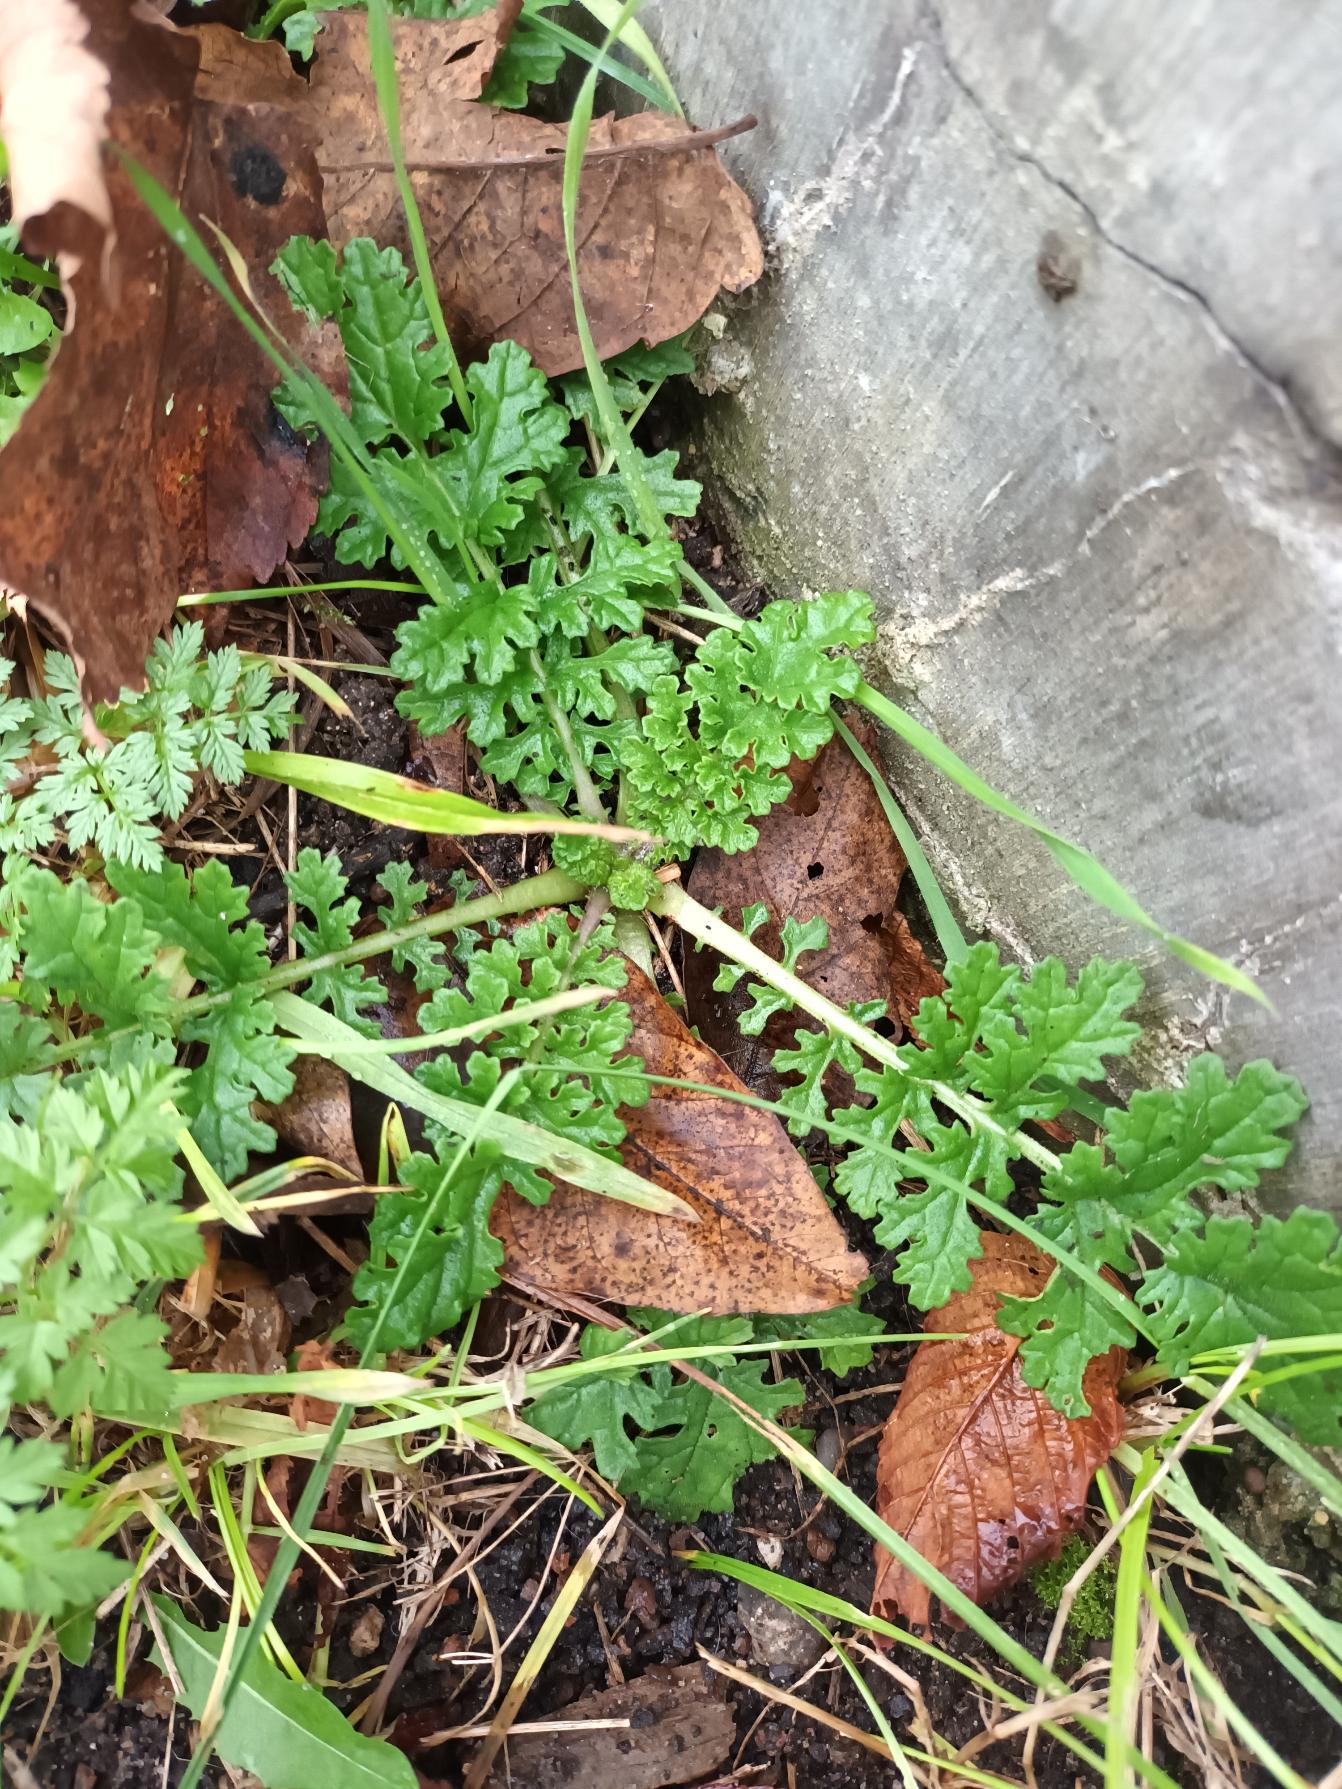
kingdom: Plantae
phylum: Tracheophyta
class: Magnoliopsida
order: Asterales
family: Asteraceae
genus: Jacobaea
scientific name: Jacobaea vulgaris
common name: Eng-brandbæger
